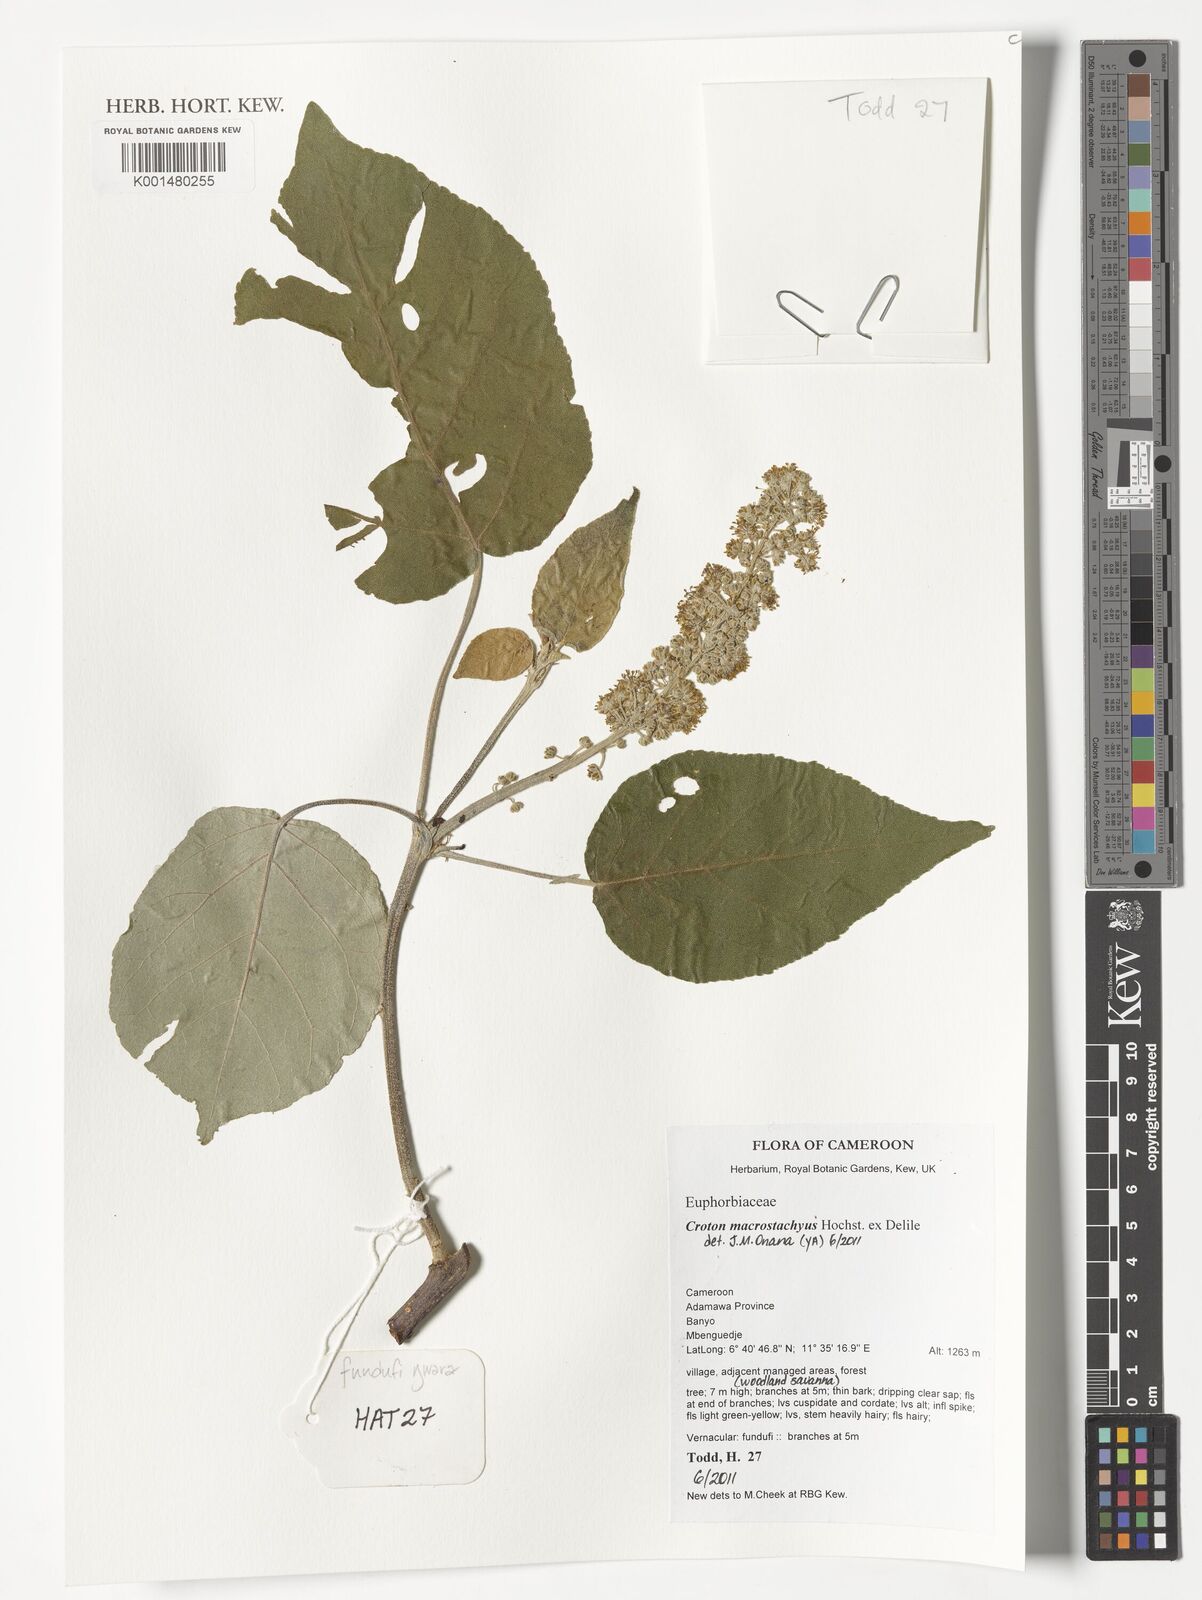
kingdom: Plantae
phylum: Tracheophyta
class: Magnoliopsida
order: Malpighiales
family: Euphorbiaceae
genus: Croton
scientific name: Croton macrostachyus
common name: Mutundu
